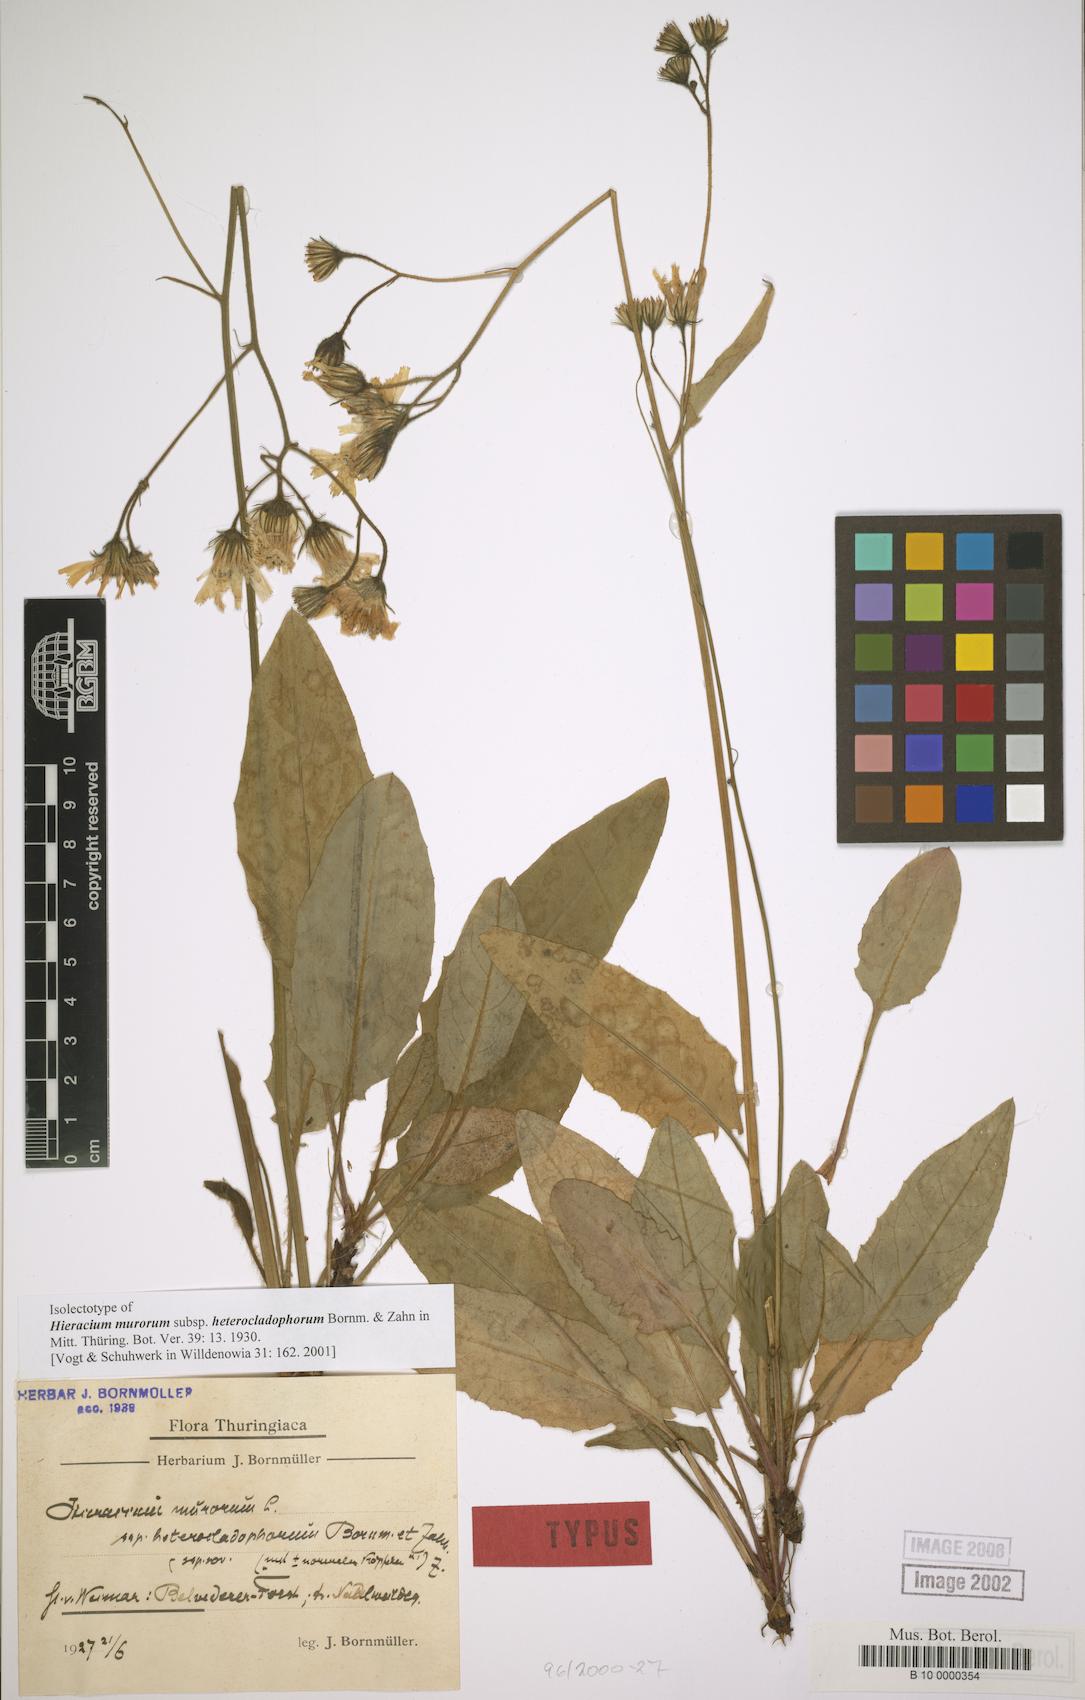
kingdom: Plantae
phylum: Tracheophyta
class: Magnoliopsida
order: Asterales
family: Asteraceae
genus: Hieracium
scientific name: Hieracium murorum
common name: Wall hawkweed
